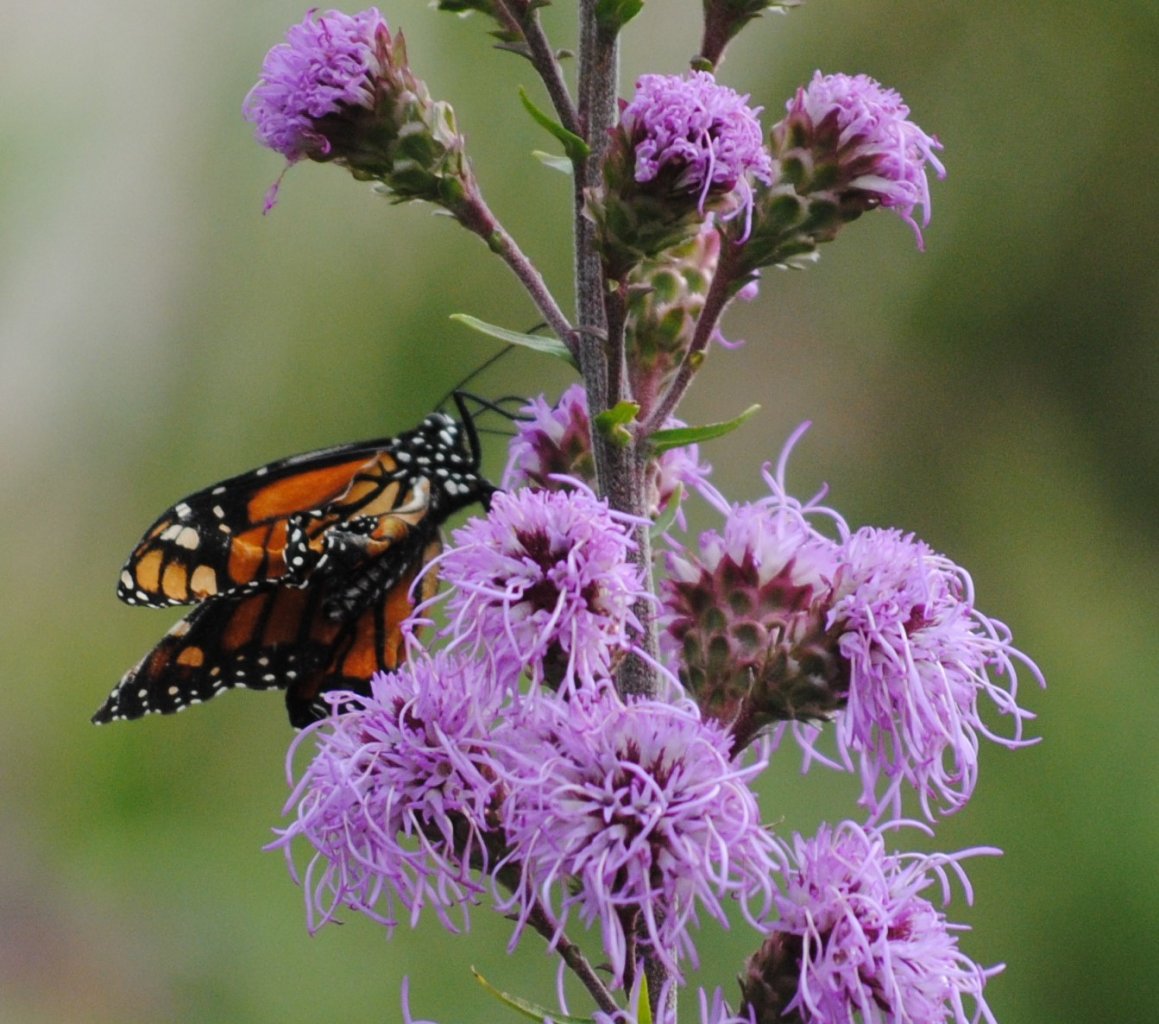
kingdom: Animalia
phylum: Arthropoda
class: Insecta
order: Lepidoptera
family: Nymphalidae
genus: Danaus
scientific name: Danaus plexippus
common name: Monarch
